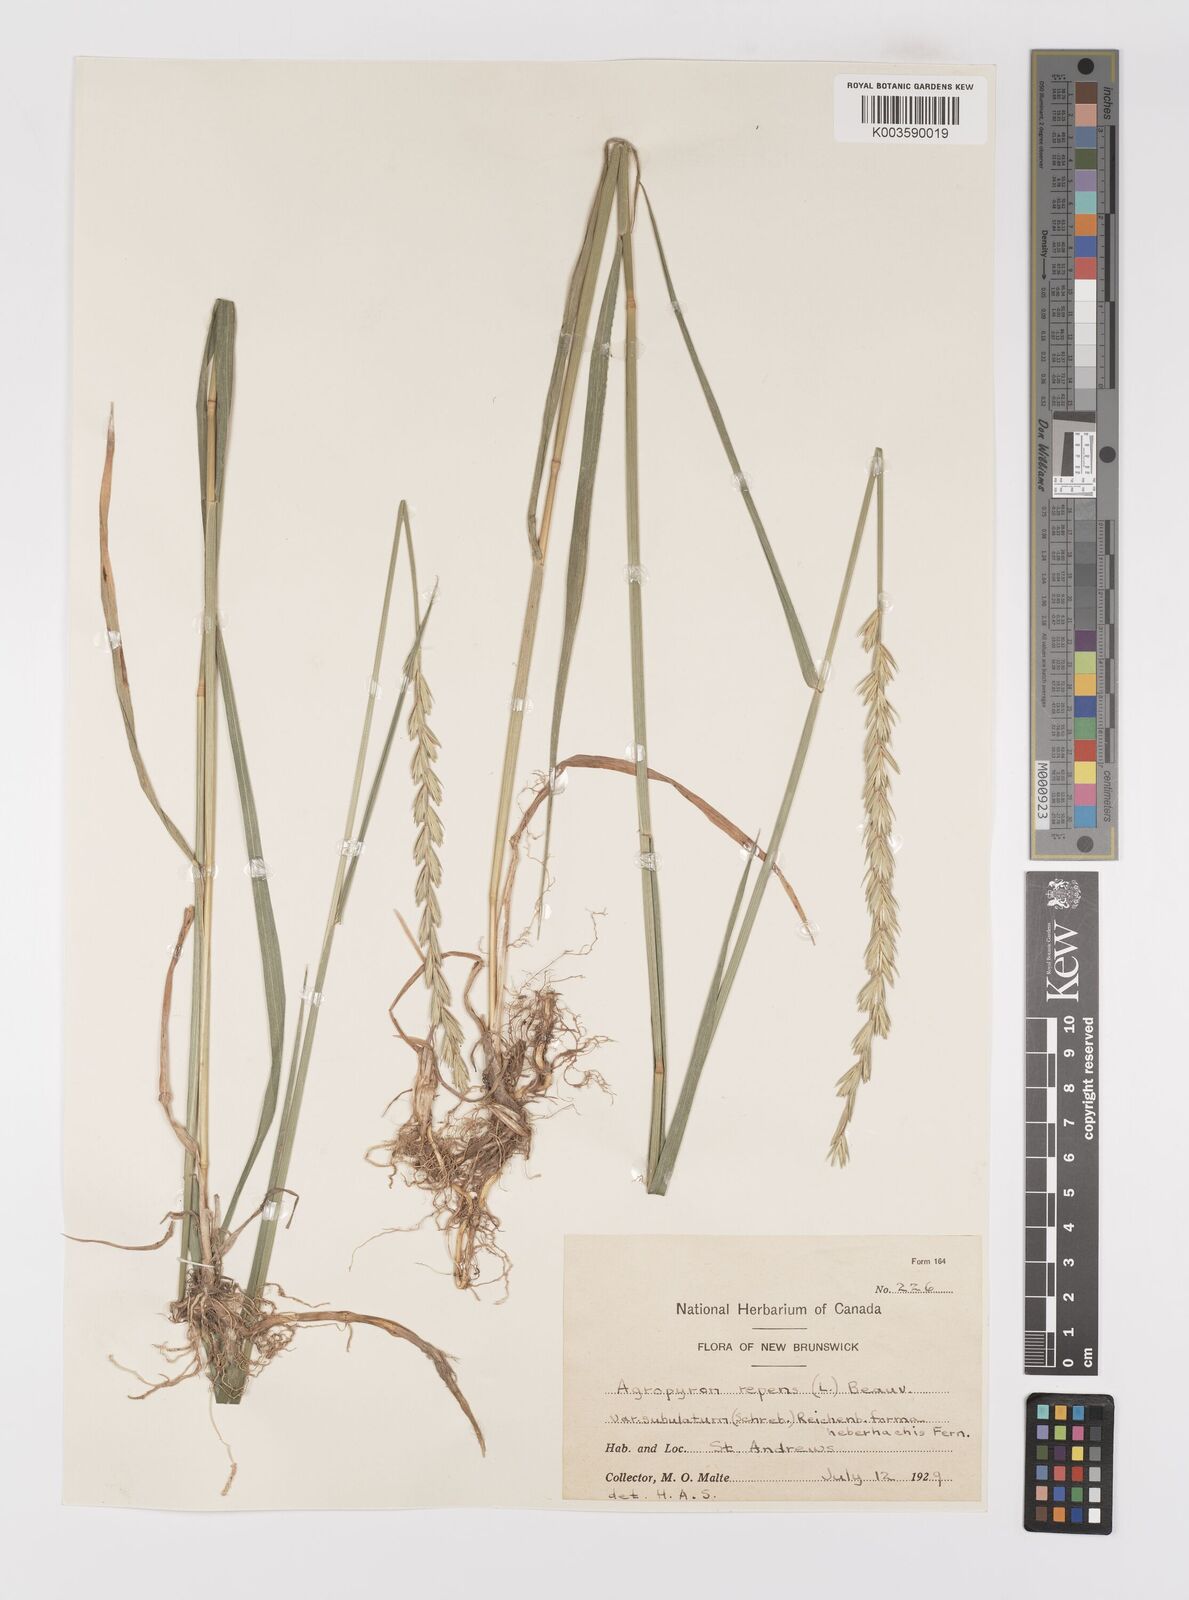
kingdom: Plantae
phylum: Tracheophyta
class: Liliopsida
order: Poales
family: Poaceae
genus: Elymus
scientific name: Elymus repens
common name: Quackgrass
